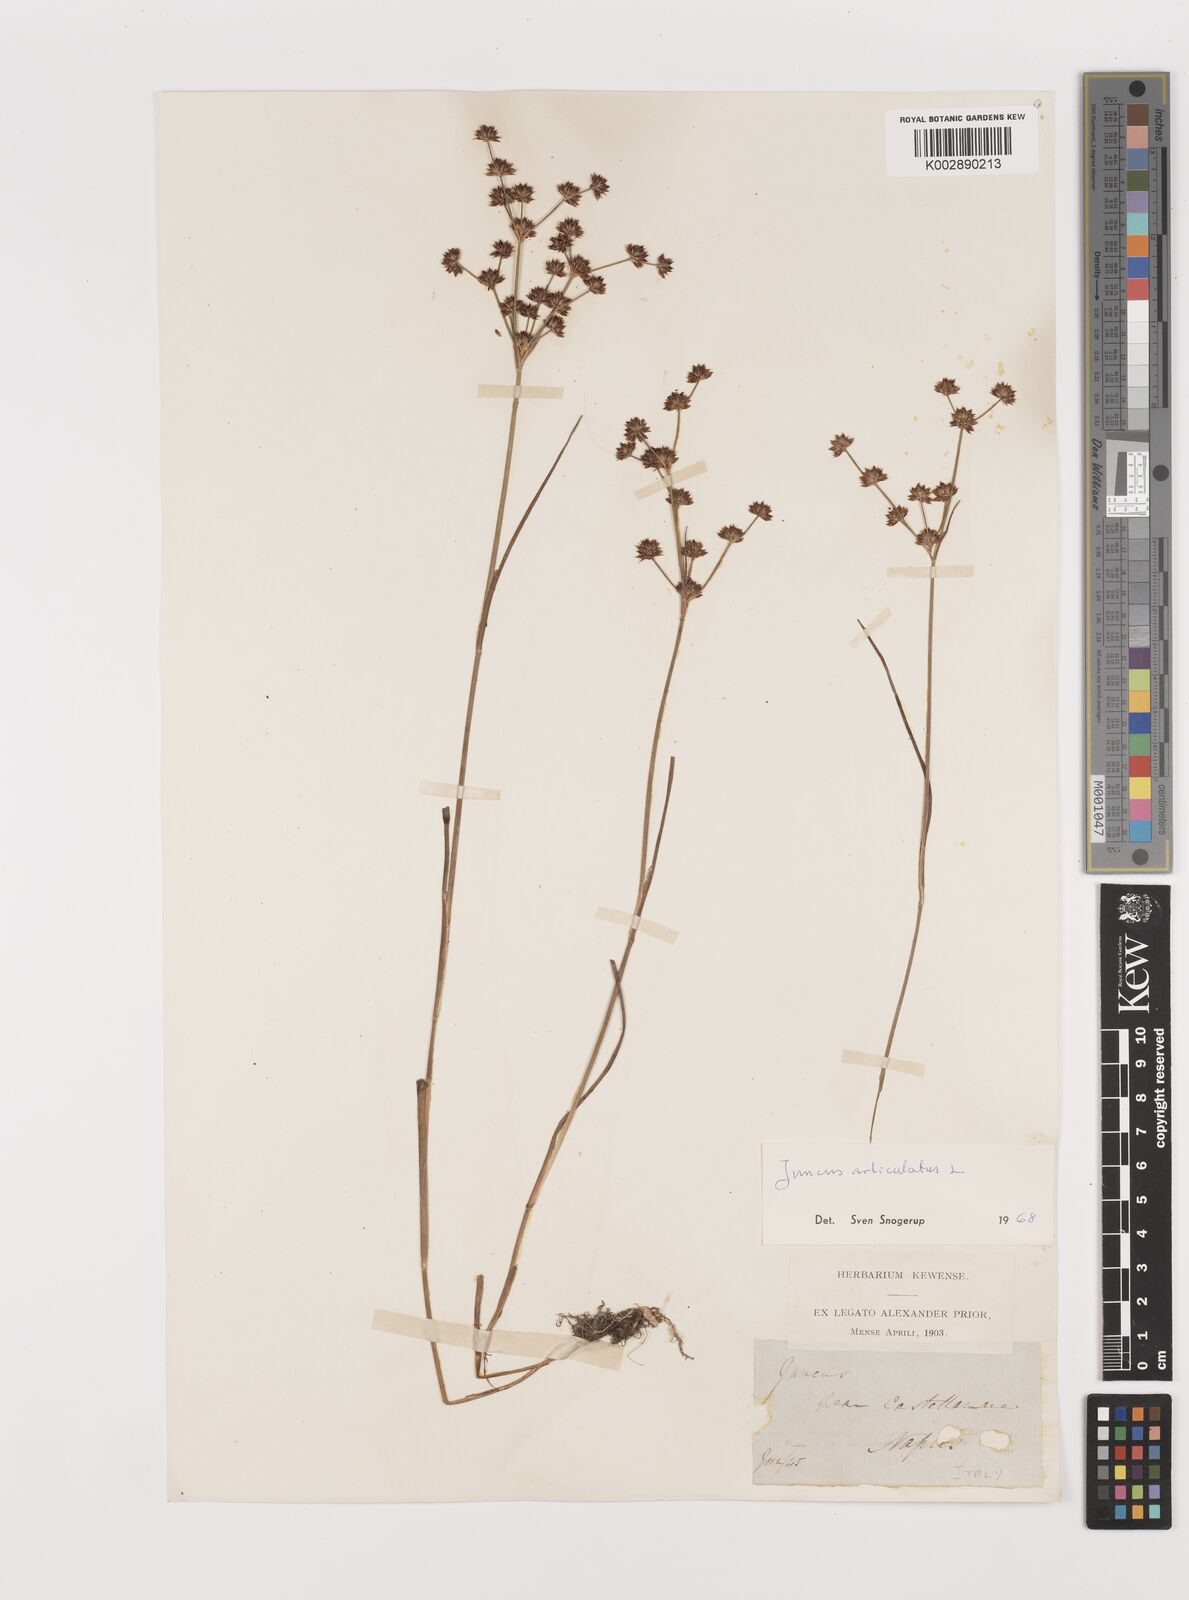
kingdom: Plantae
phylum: Tracheophyta
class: Liliopsida
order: Poales
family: Juncaceae
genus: Juncus
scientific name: Juncus articulatus
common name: Jointed rush
